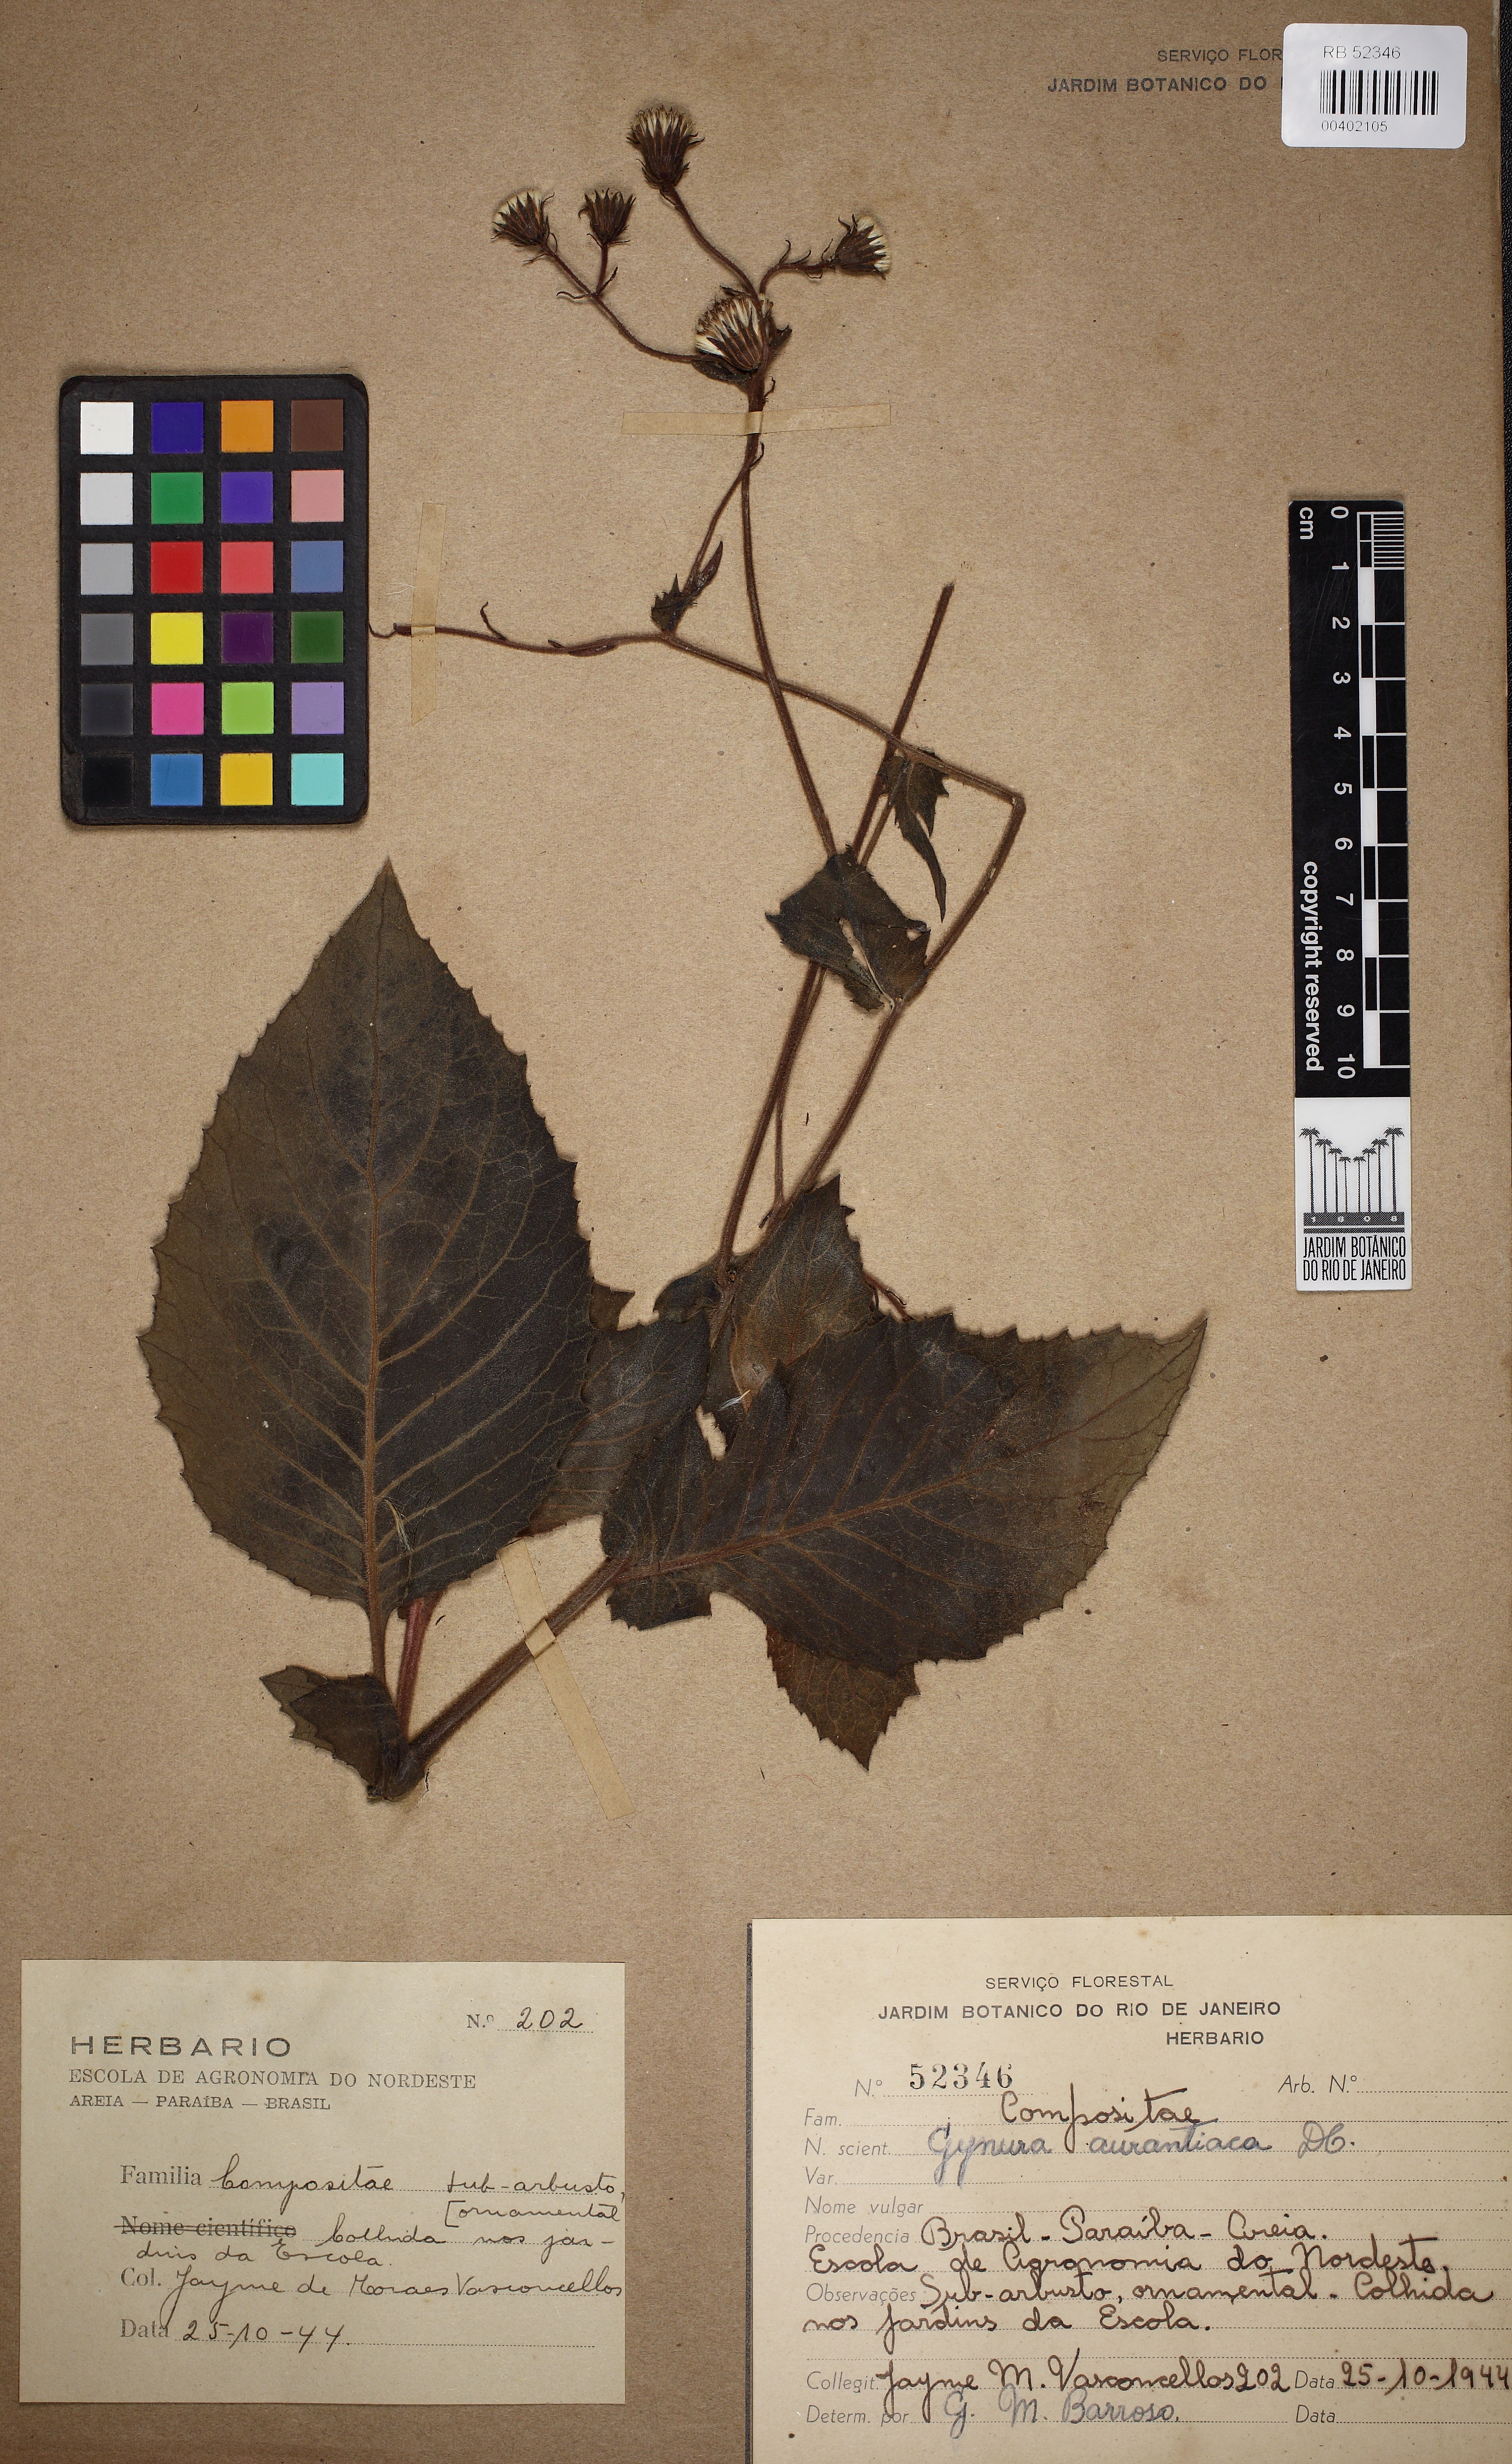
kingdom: Plantae
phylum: Tracheophyta
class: Magnoliopsida
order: Asterales
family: Asteraceae
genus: Gynura
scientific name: Gynura aurantiaca
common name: Velvetplant
